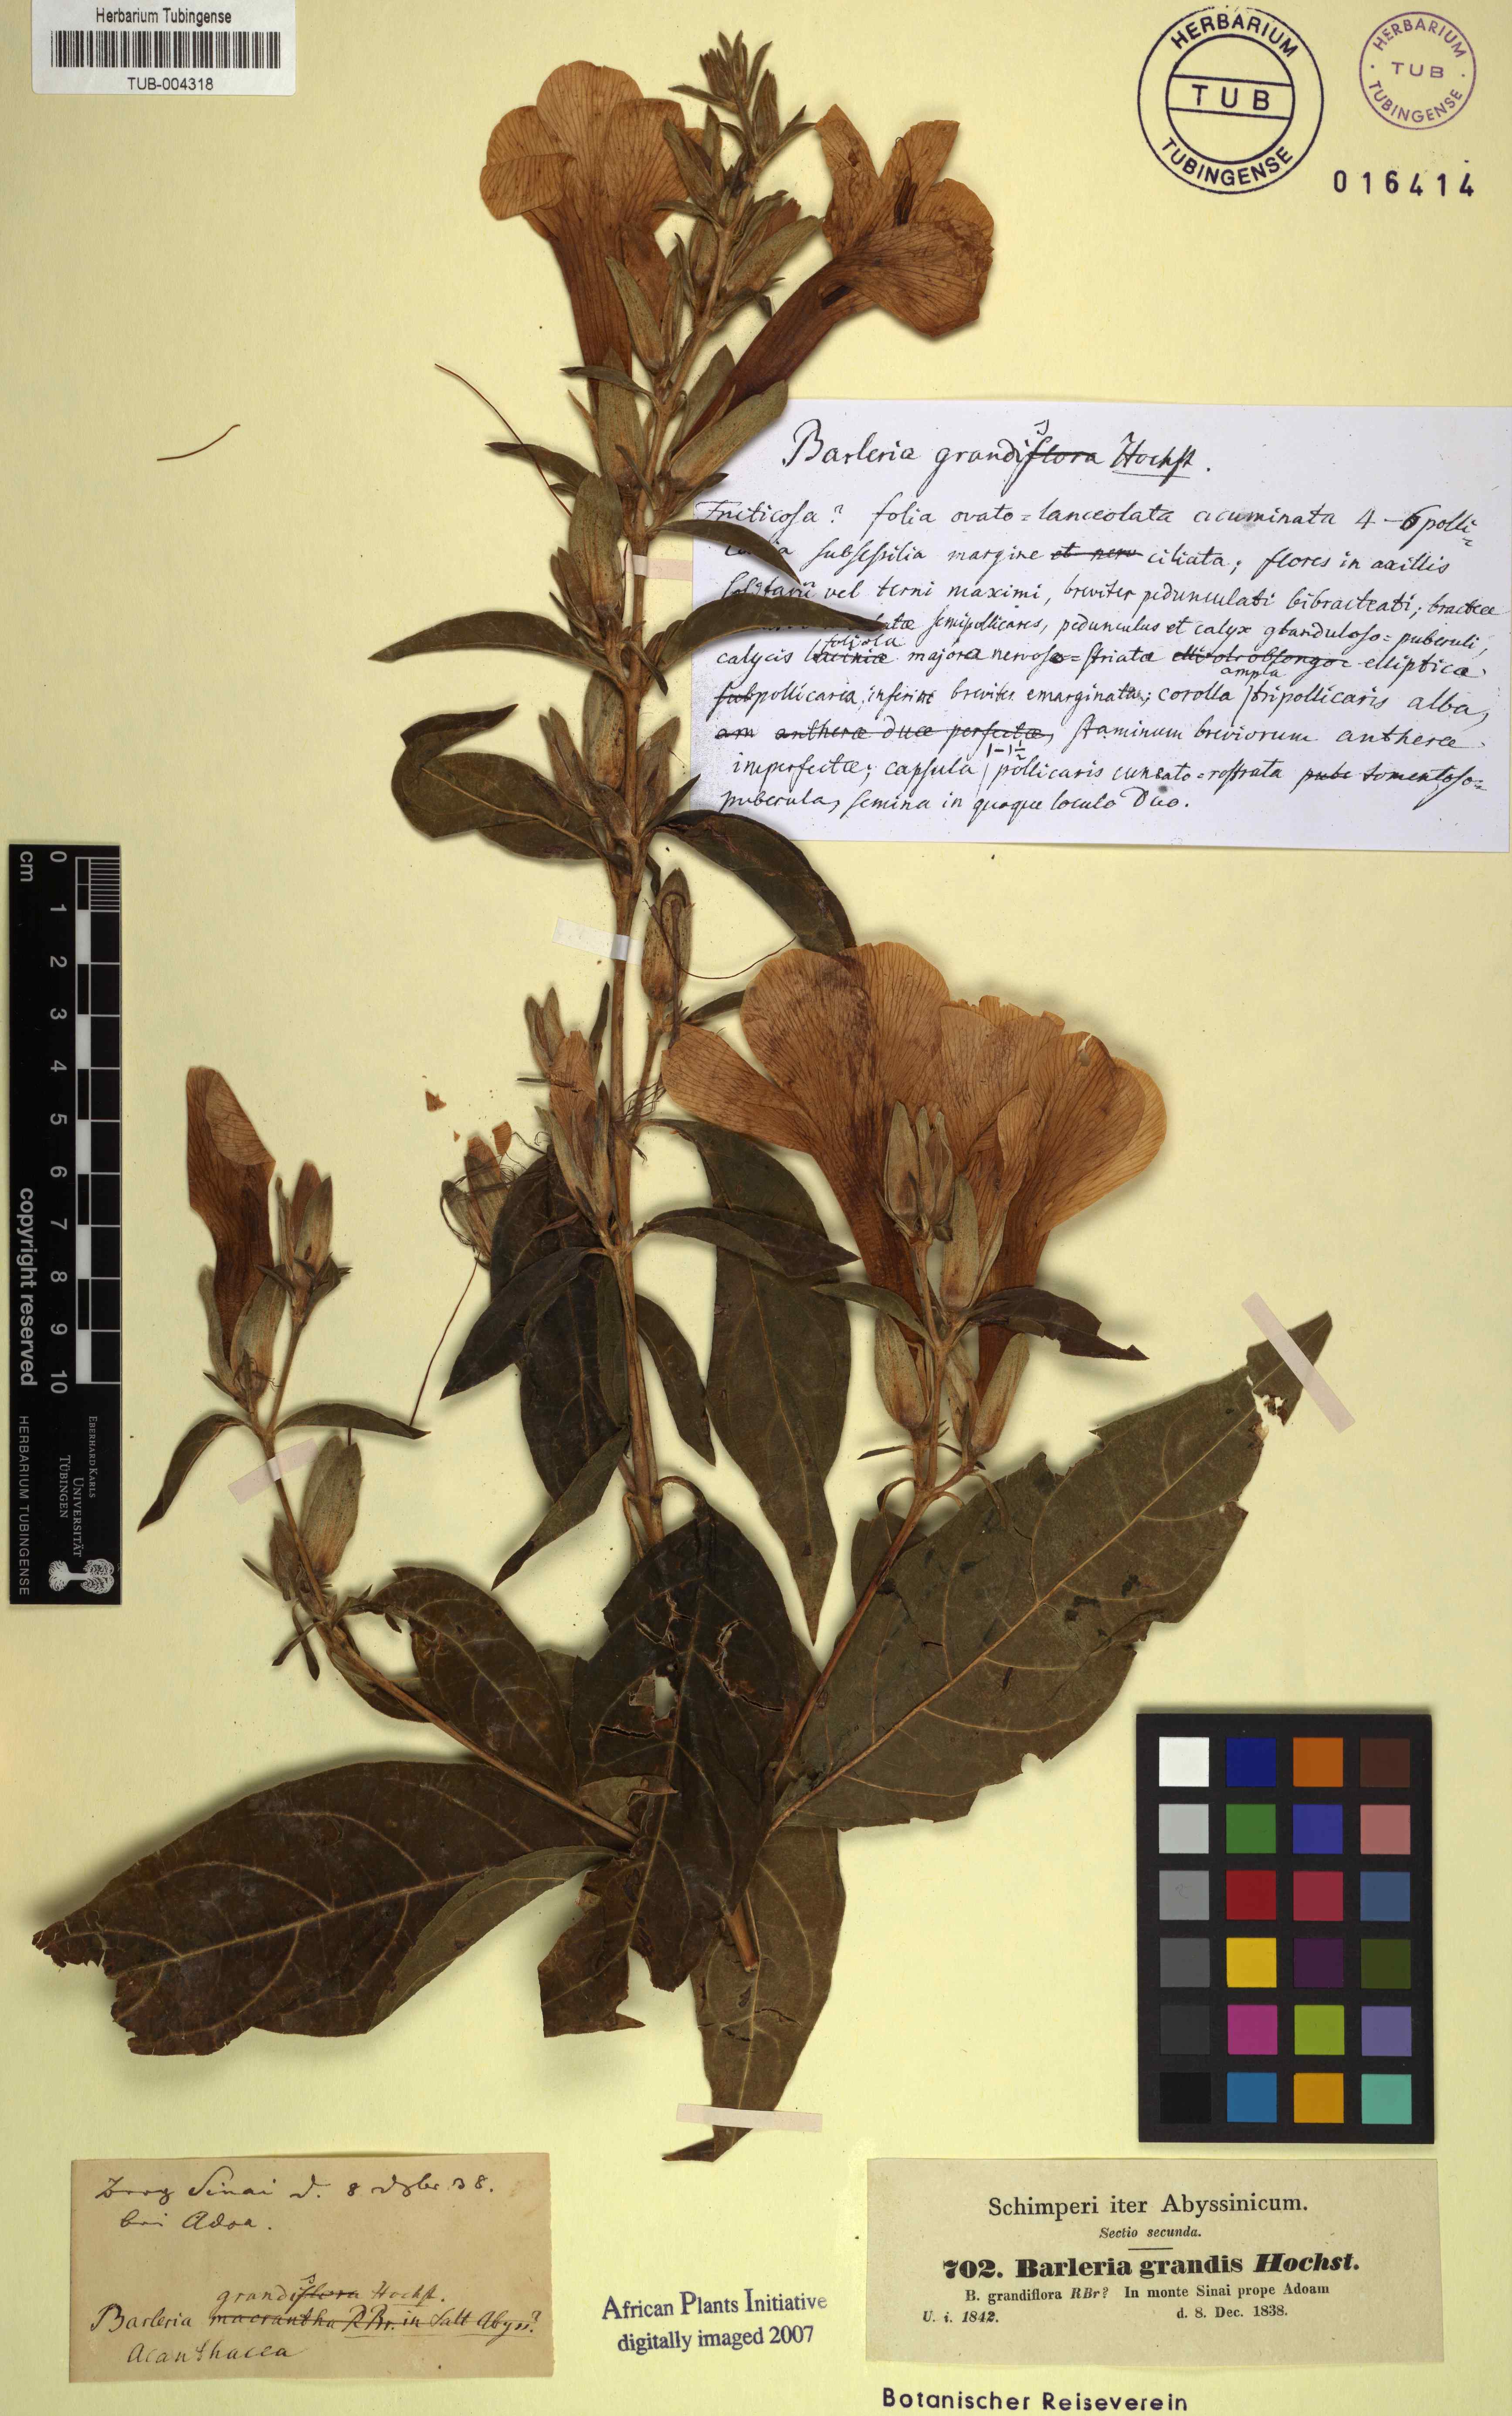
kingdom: Plantae
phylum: Tracheophyta
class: Magnoliopsida
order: Lamiales
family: Acanthaceae
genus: Barleria
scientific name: Barleria grandis
